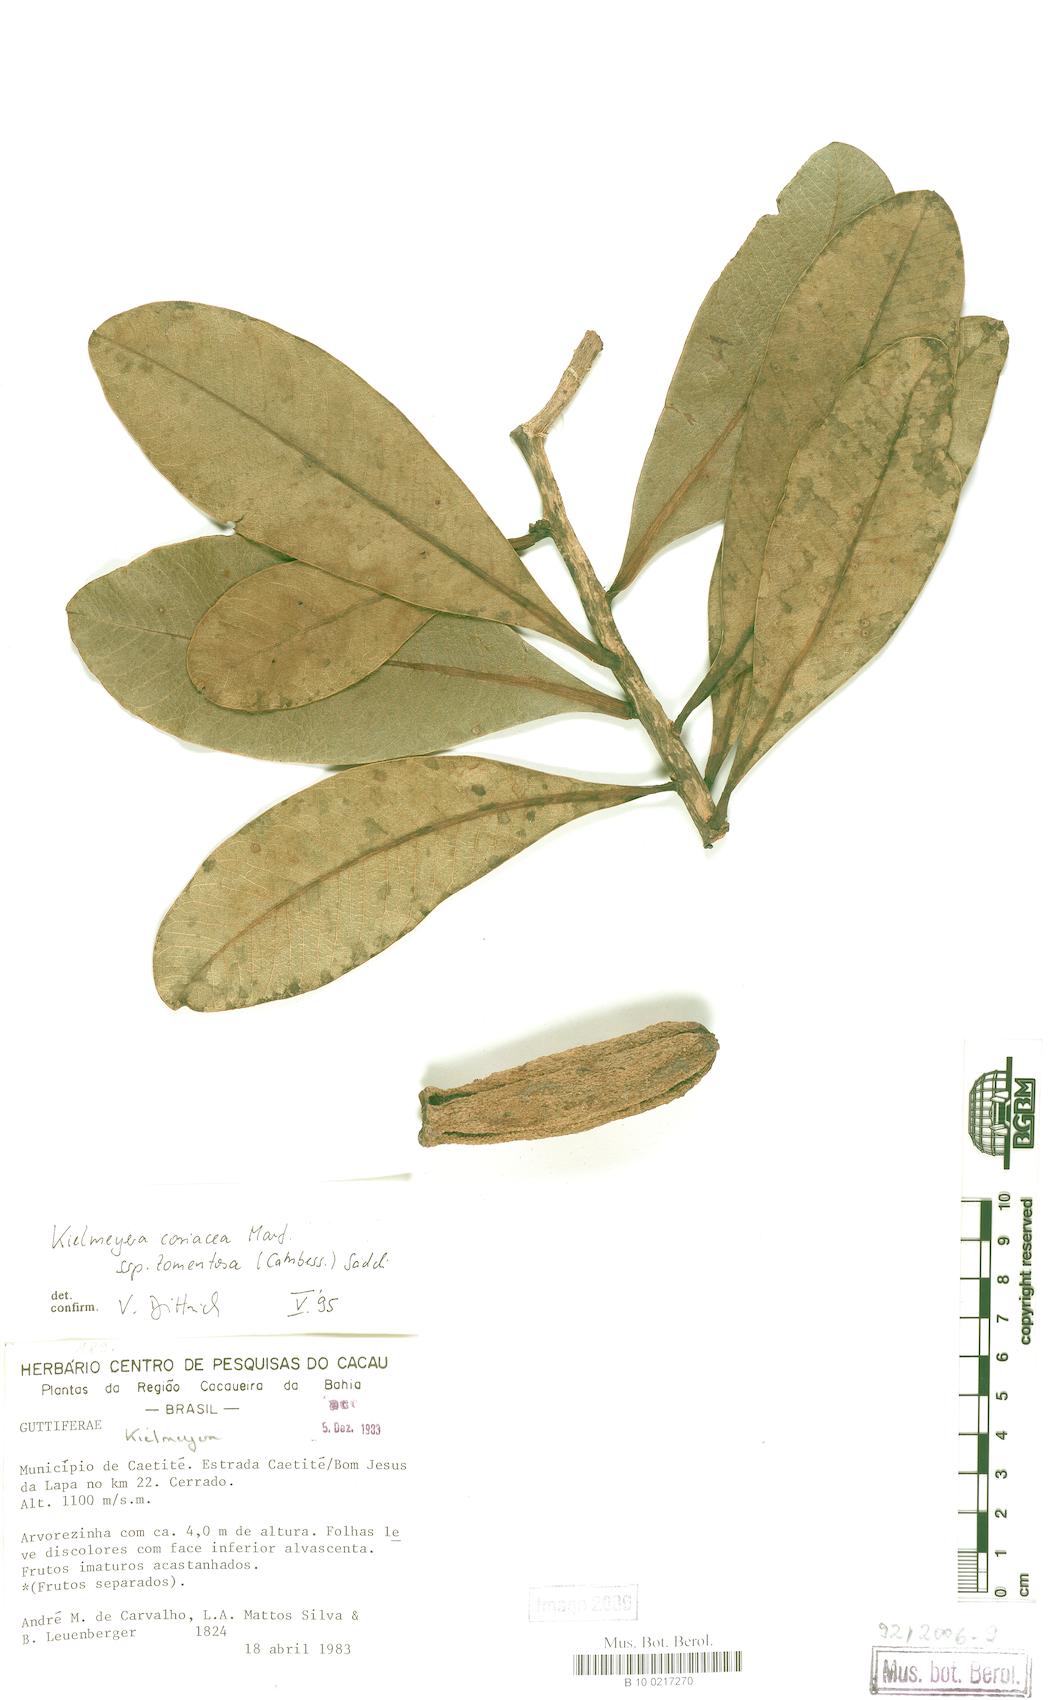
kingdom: Plantae
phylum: Tracheophyta
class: Magnoliopsida
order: Malpighiales
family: Calophyllaceae
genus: Kielmeyera
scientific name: Kielmeyera tomentosa
